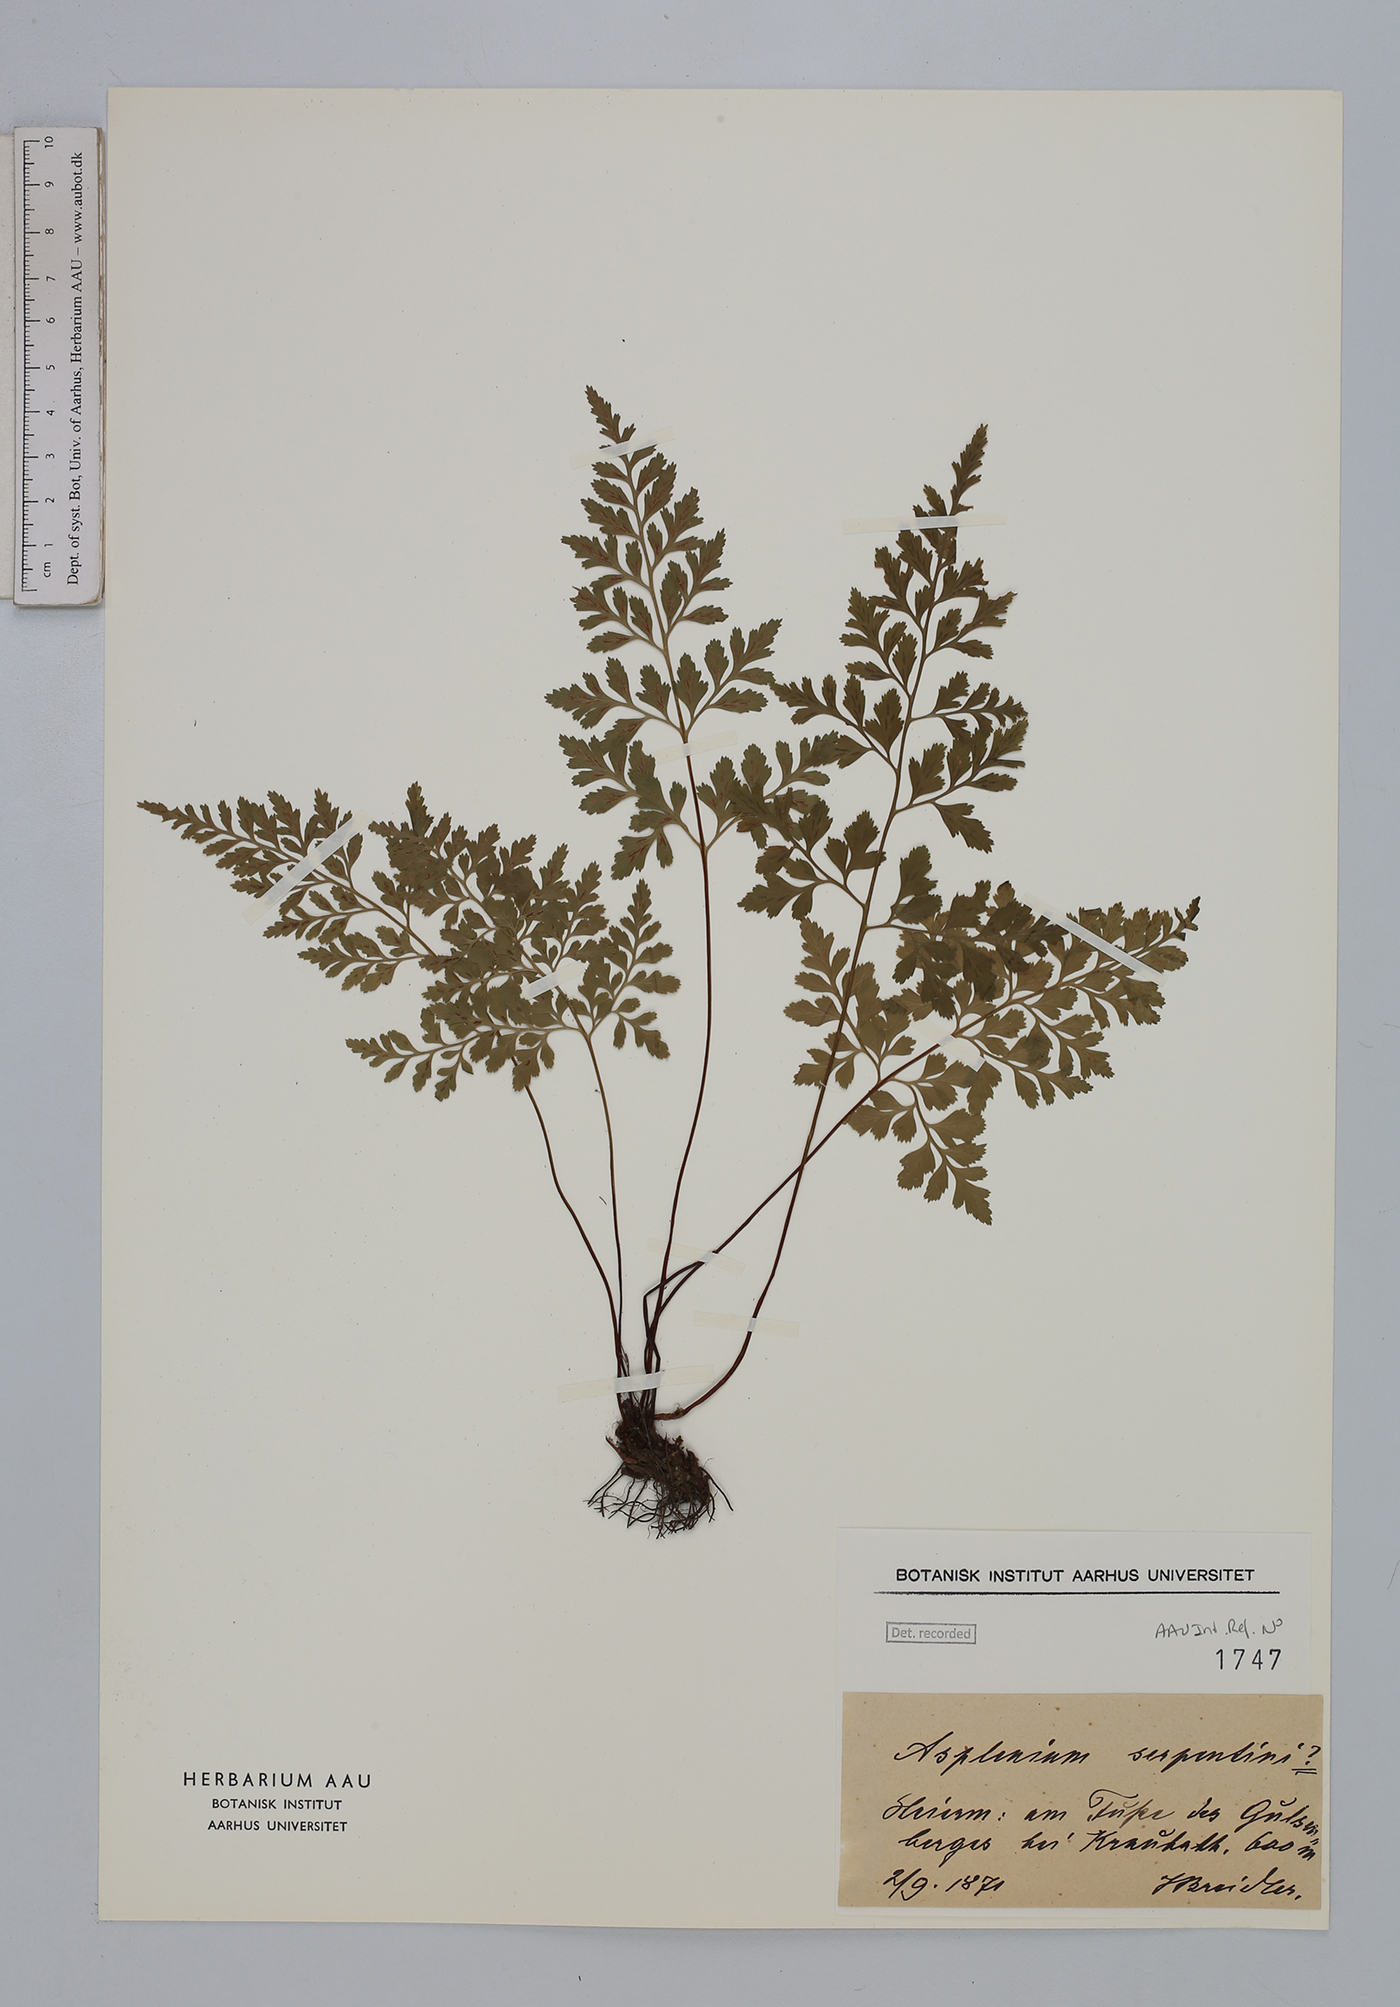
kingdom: Plantae
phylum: Tracheophyta
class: Polypodiopsida
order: Polypodiales
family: Aspleniaceae
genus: Asplenium
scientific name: Asplenium cuneifolium
